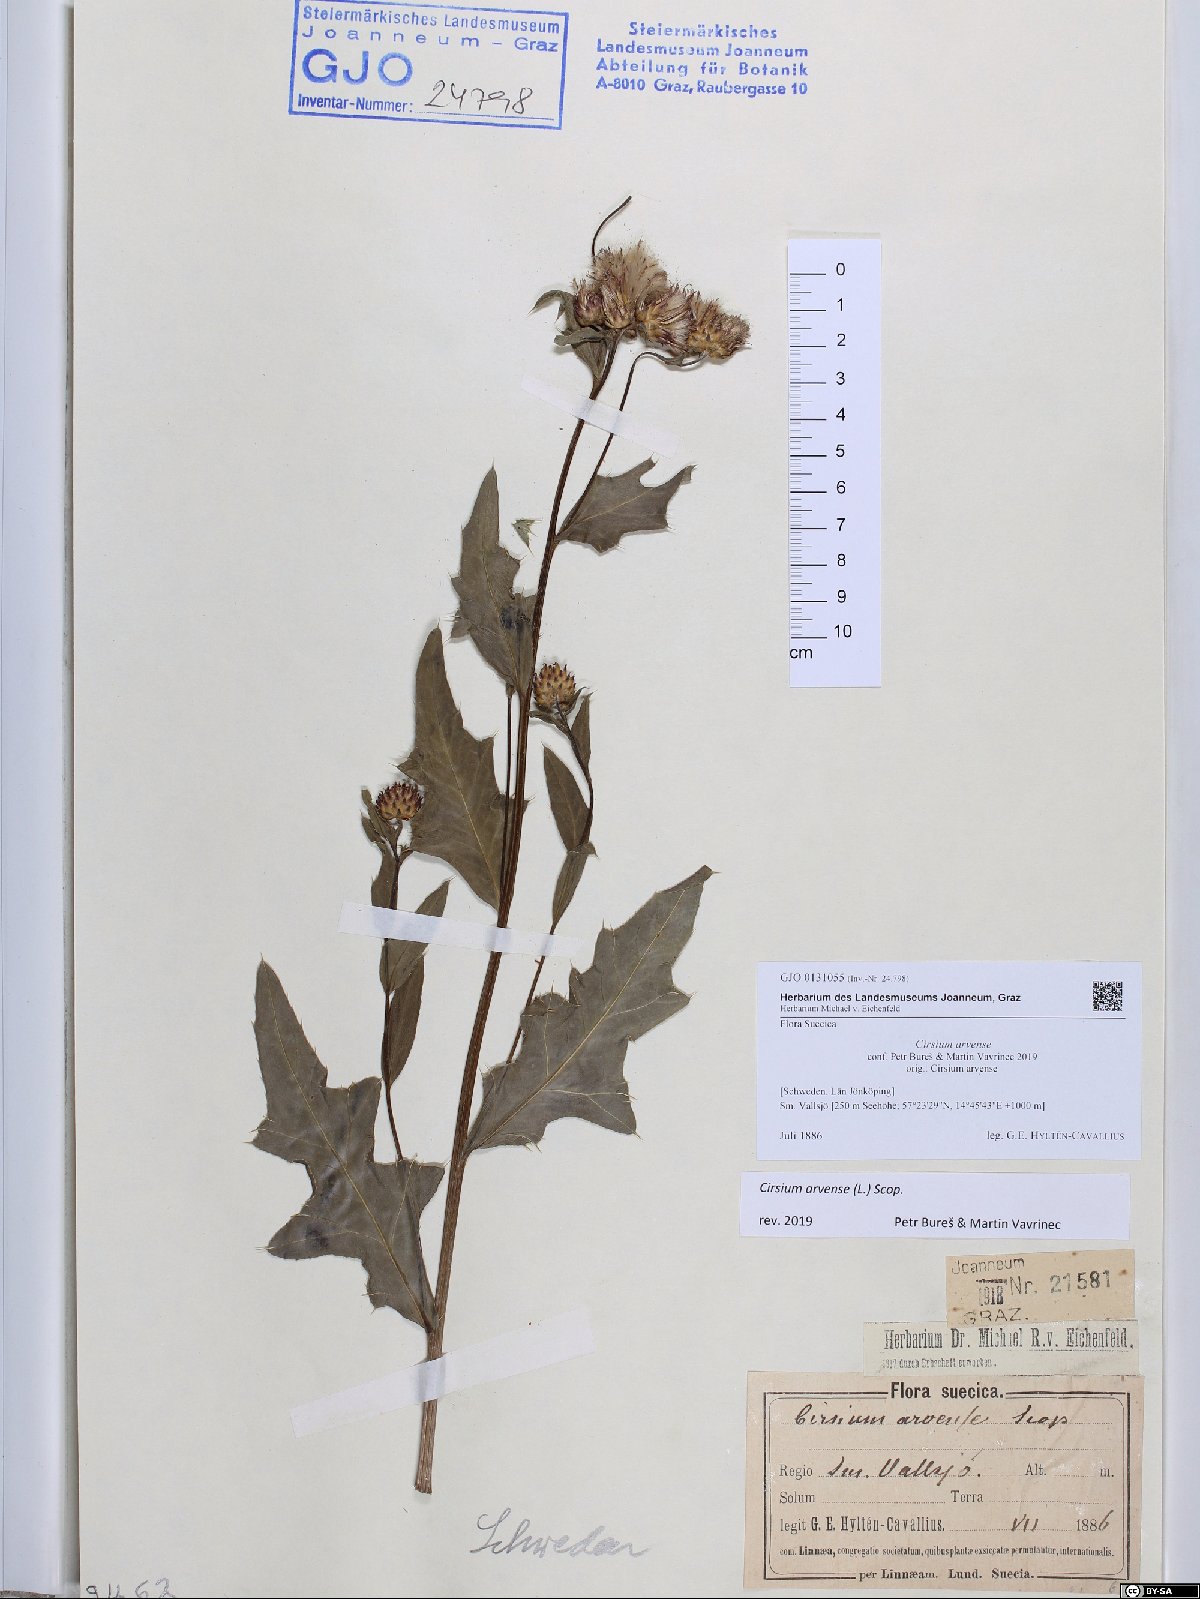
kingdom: Plantae
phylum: Tracheophyta
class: Magnoliopsida
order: Asterales
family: Asteraceae
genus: Cirsium
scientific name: Cirsium arvense
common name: Creeping thistle
